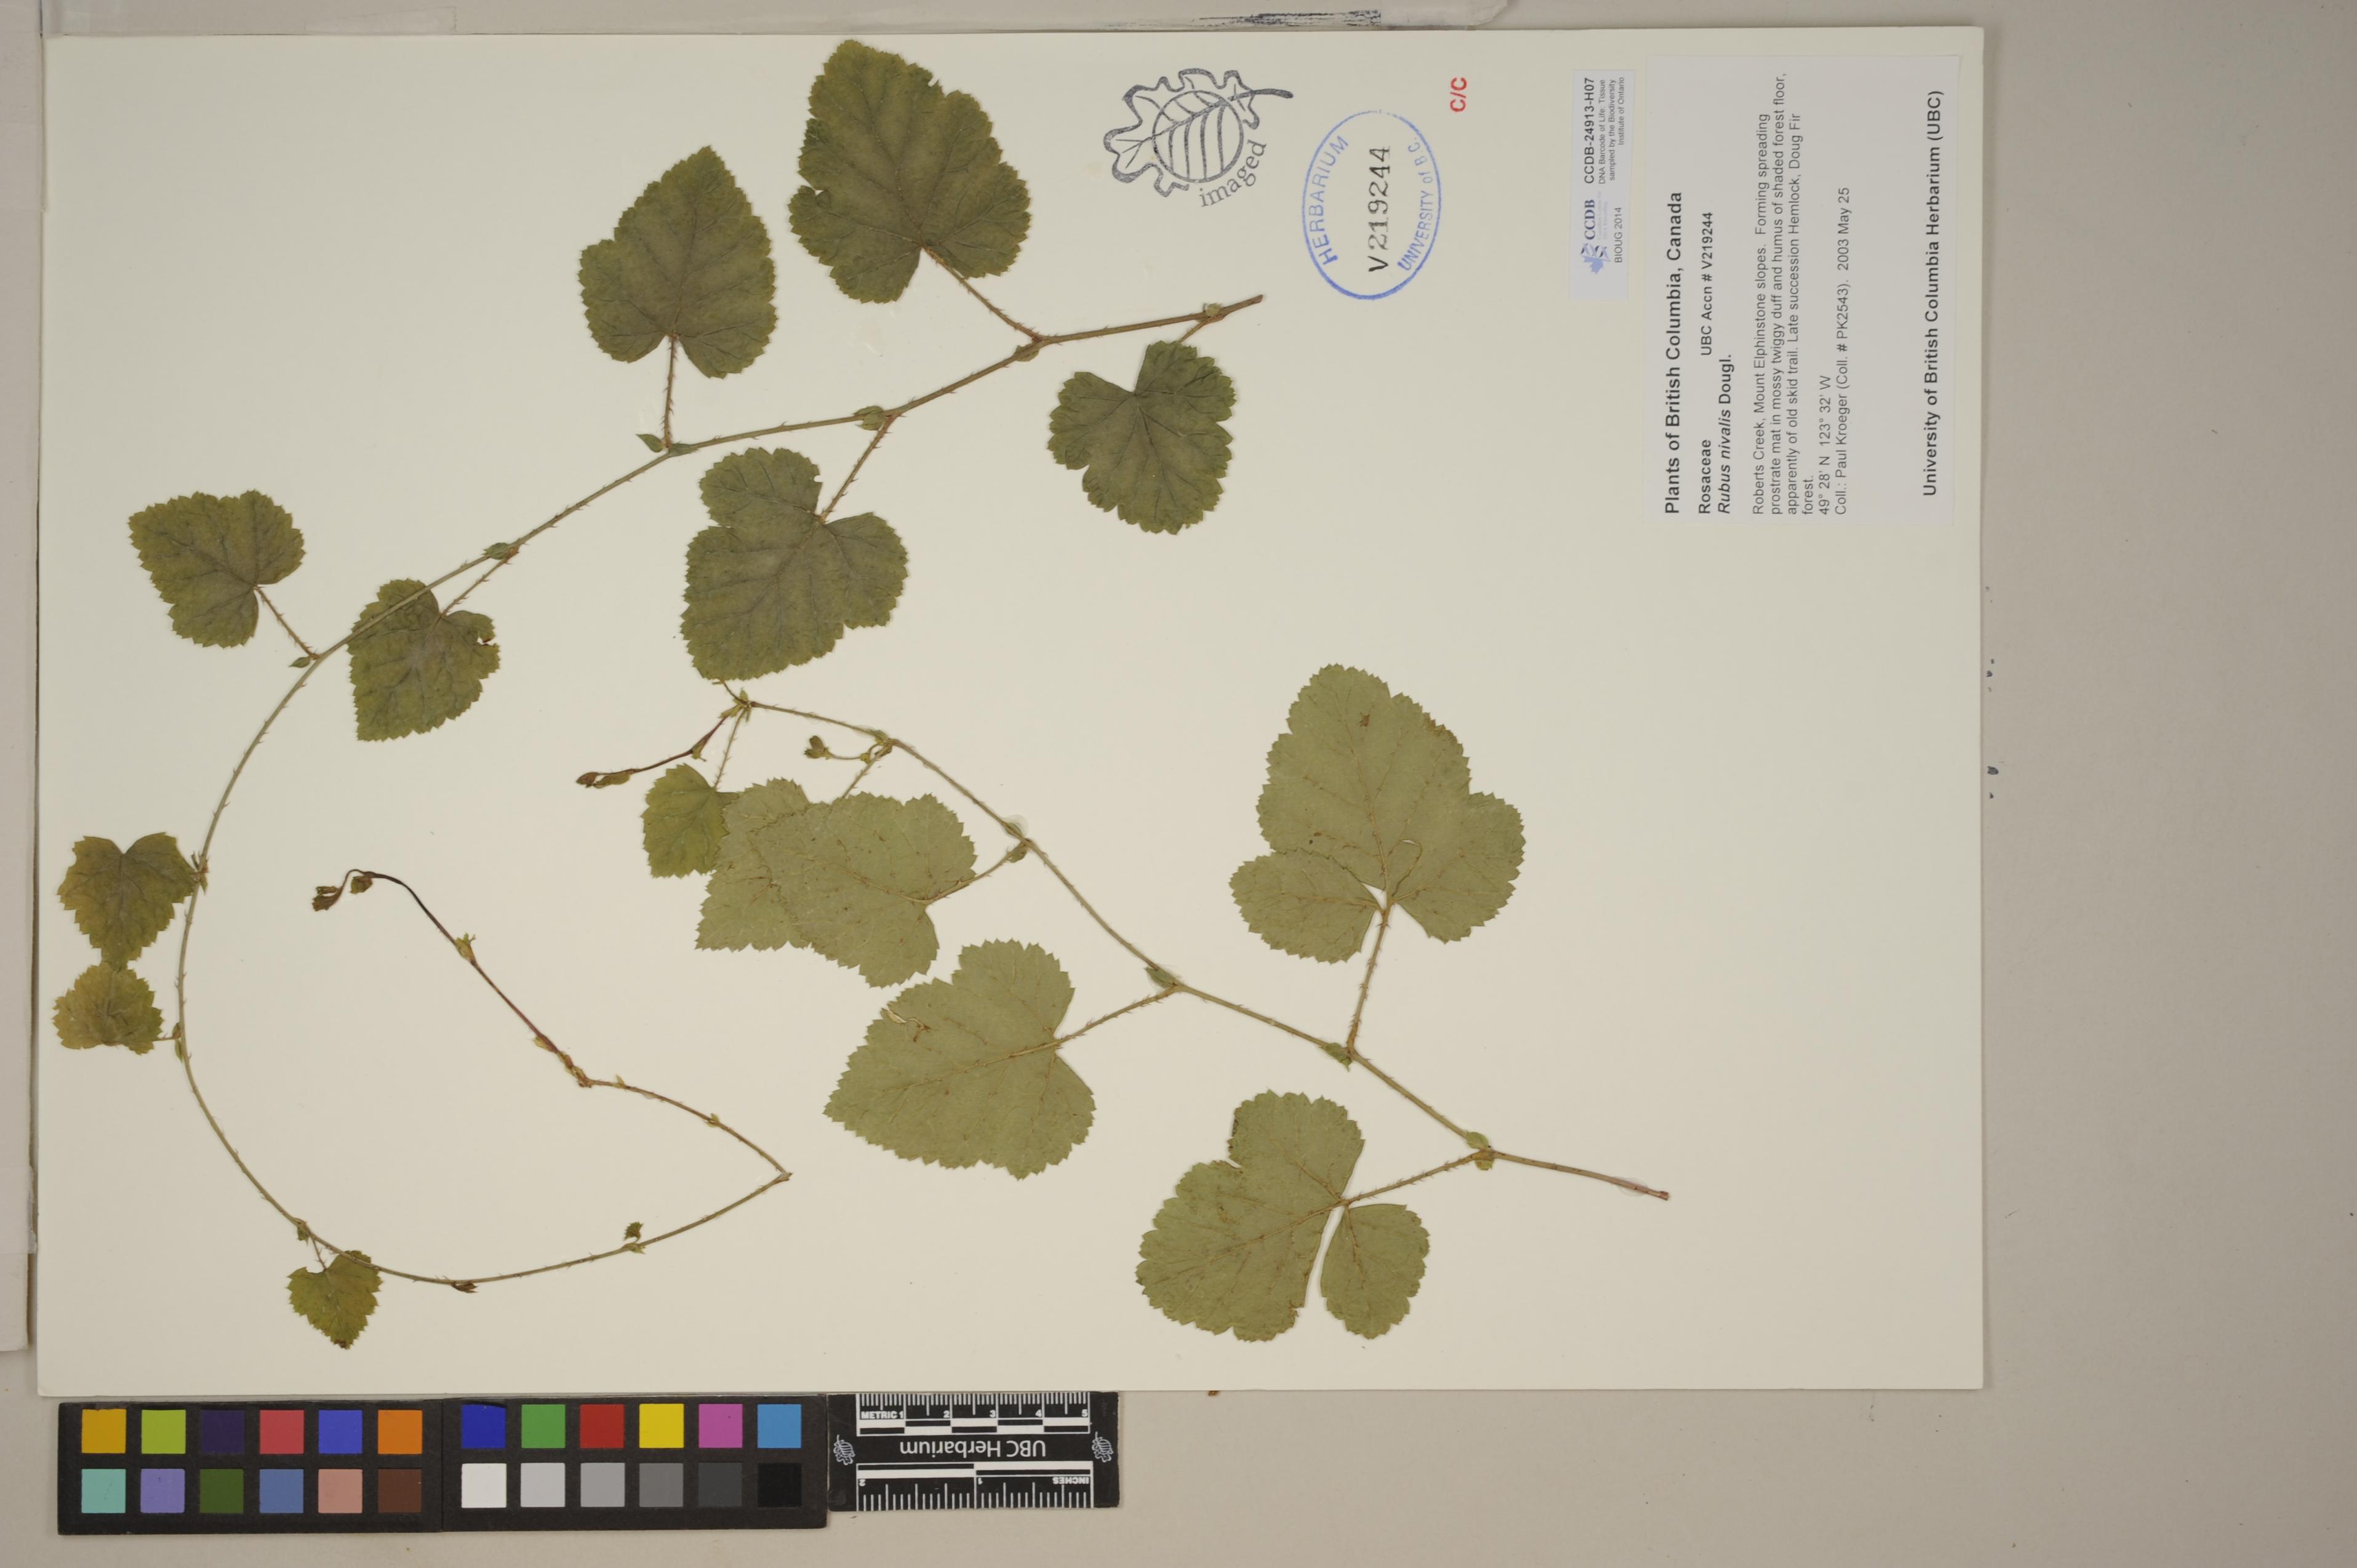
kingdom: Plantae
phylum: Tracheophyta
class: Magnoliopsida
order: Rosales
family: Rosaceae
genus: Rubus
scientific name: Rubus nivalis
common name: Dwarf snow bramble
